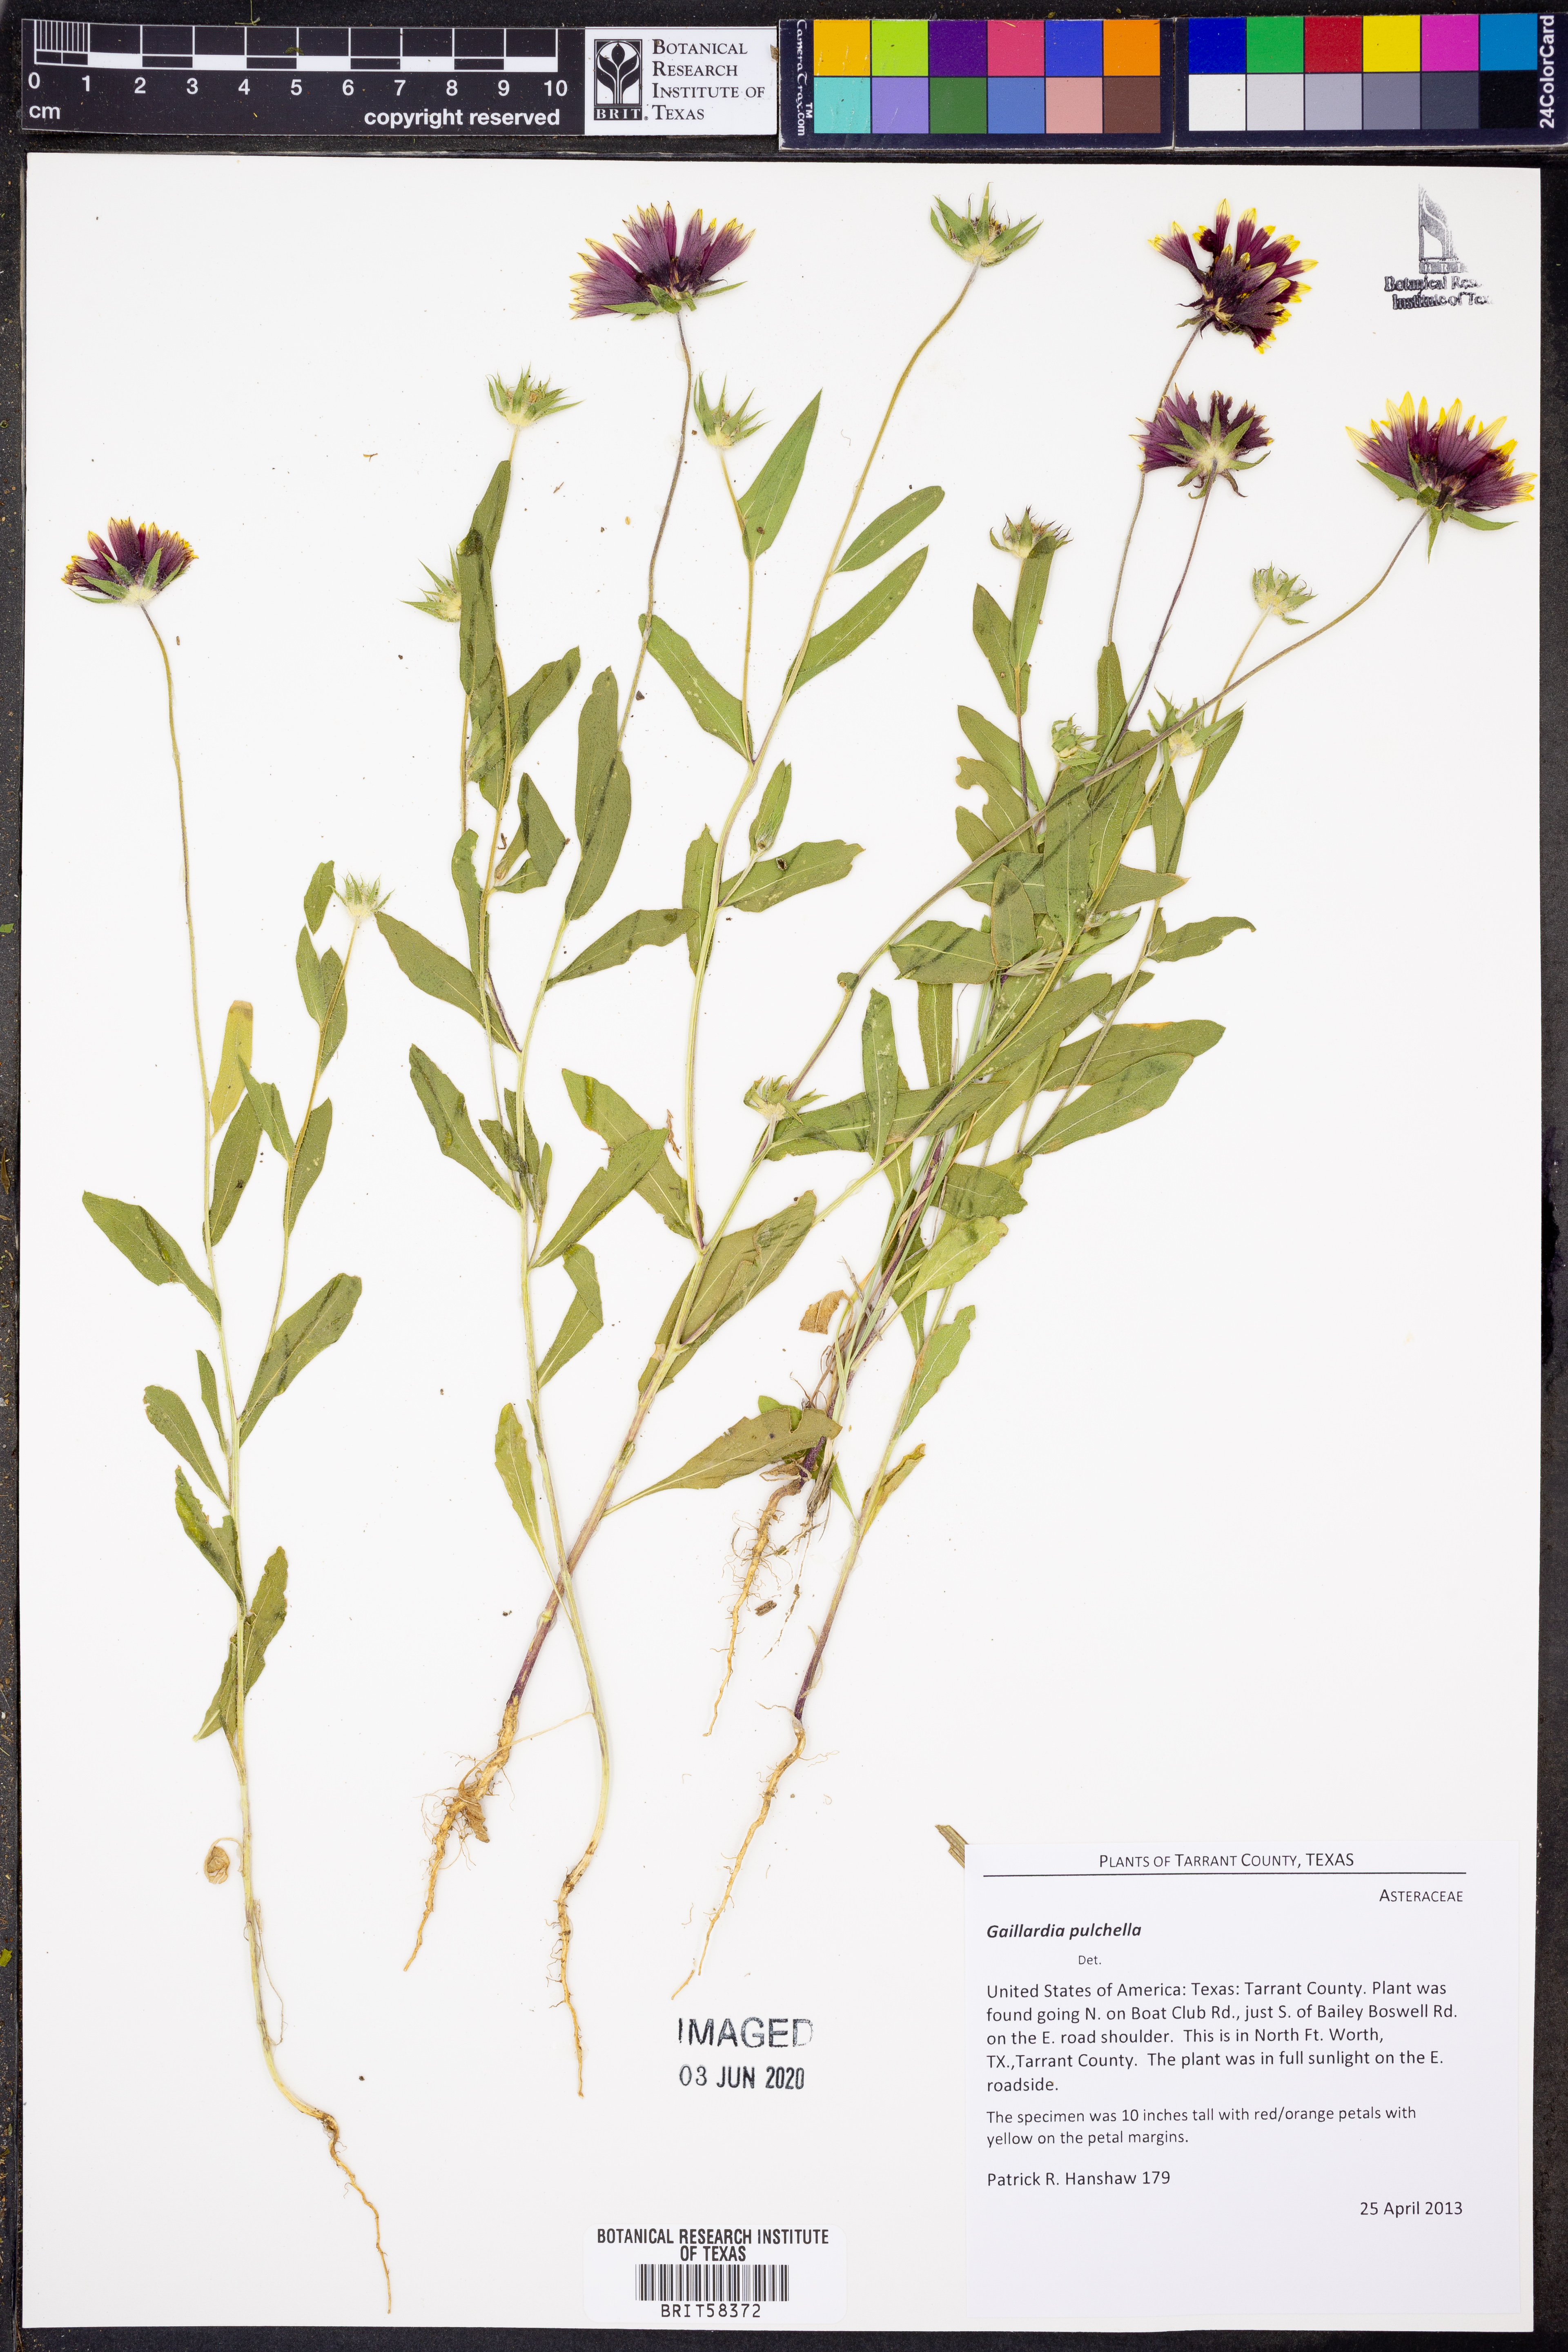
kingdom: Plantae
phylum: Tracheophyta
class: Magnoliopsida
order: Asterales
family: Asteraceae
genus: Gaillardia
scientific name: Gaillardia pulchella
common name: Firewheel
